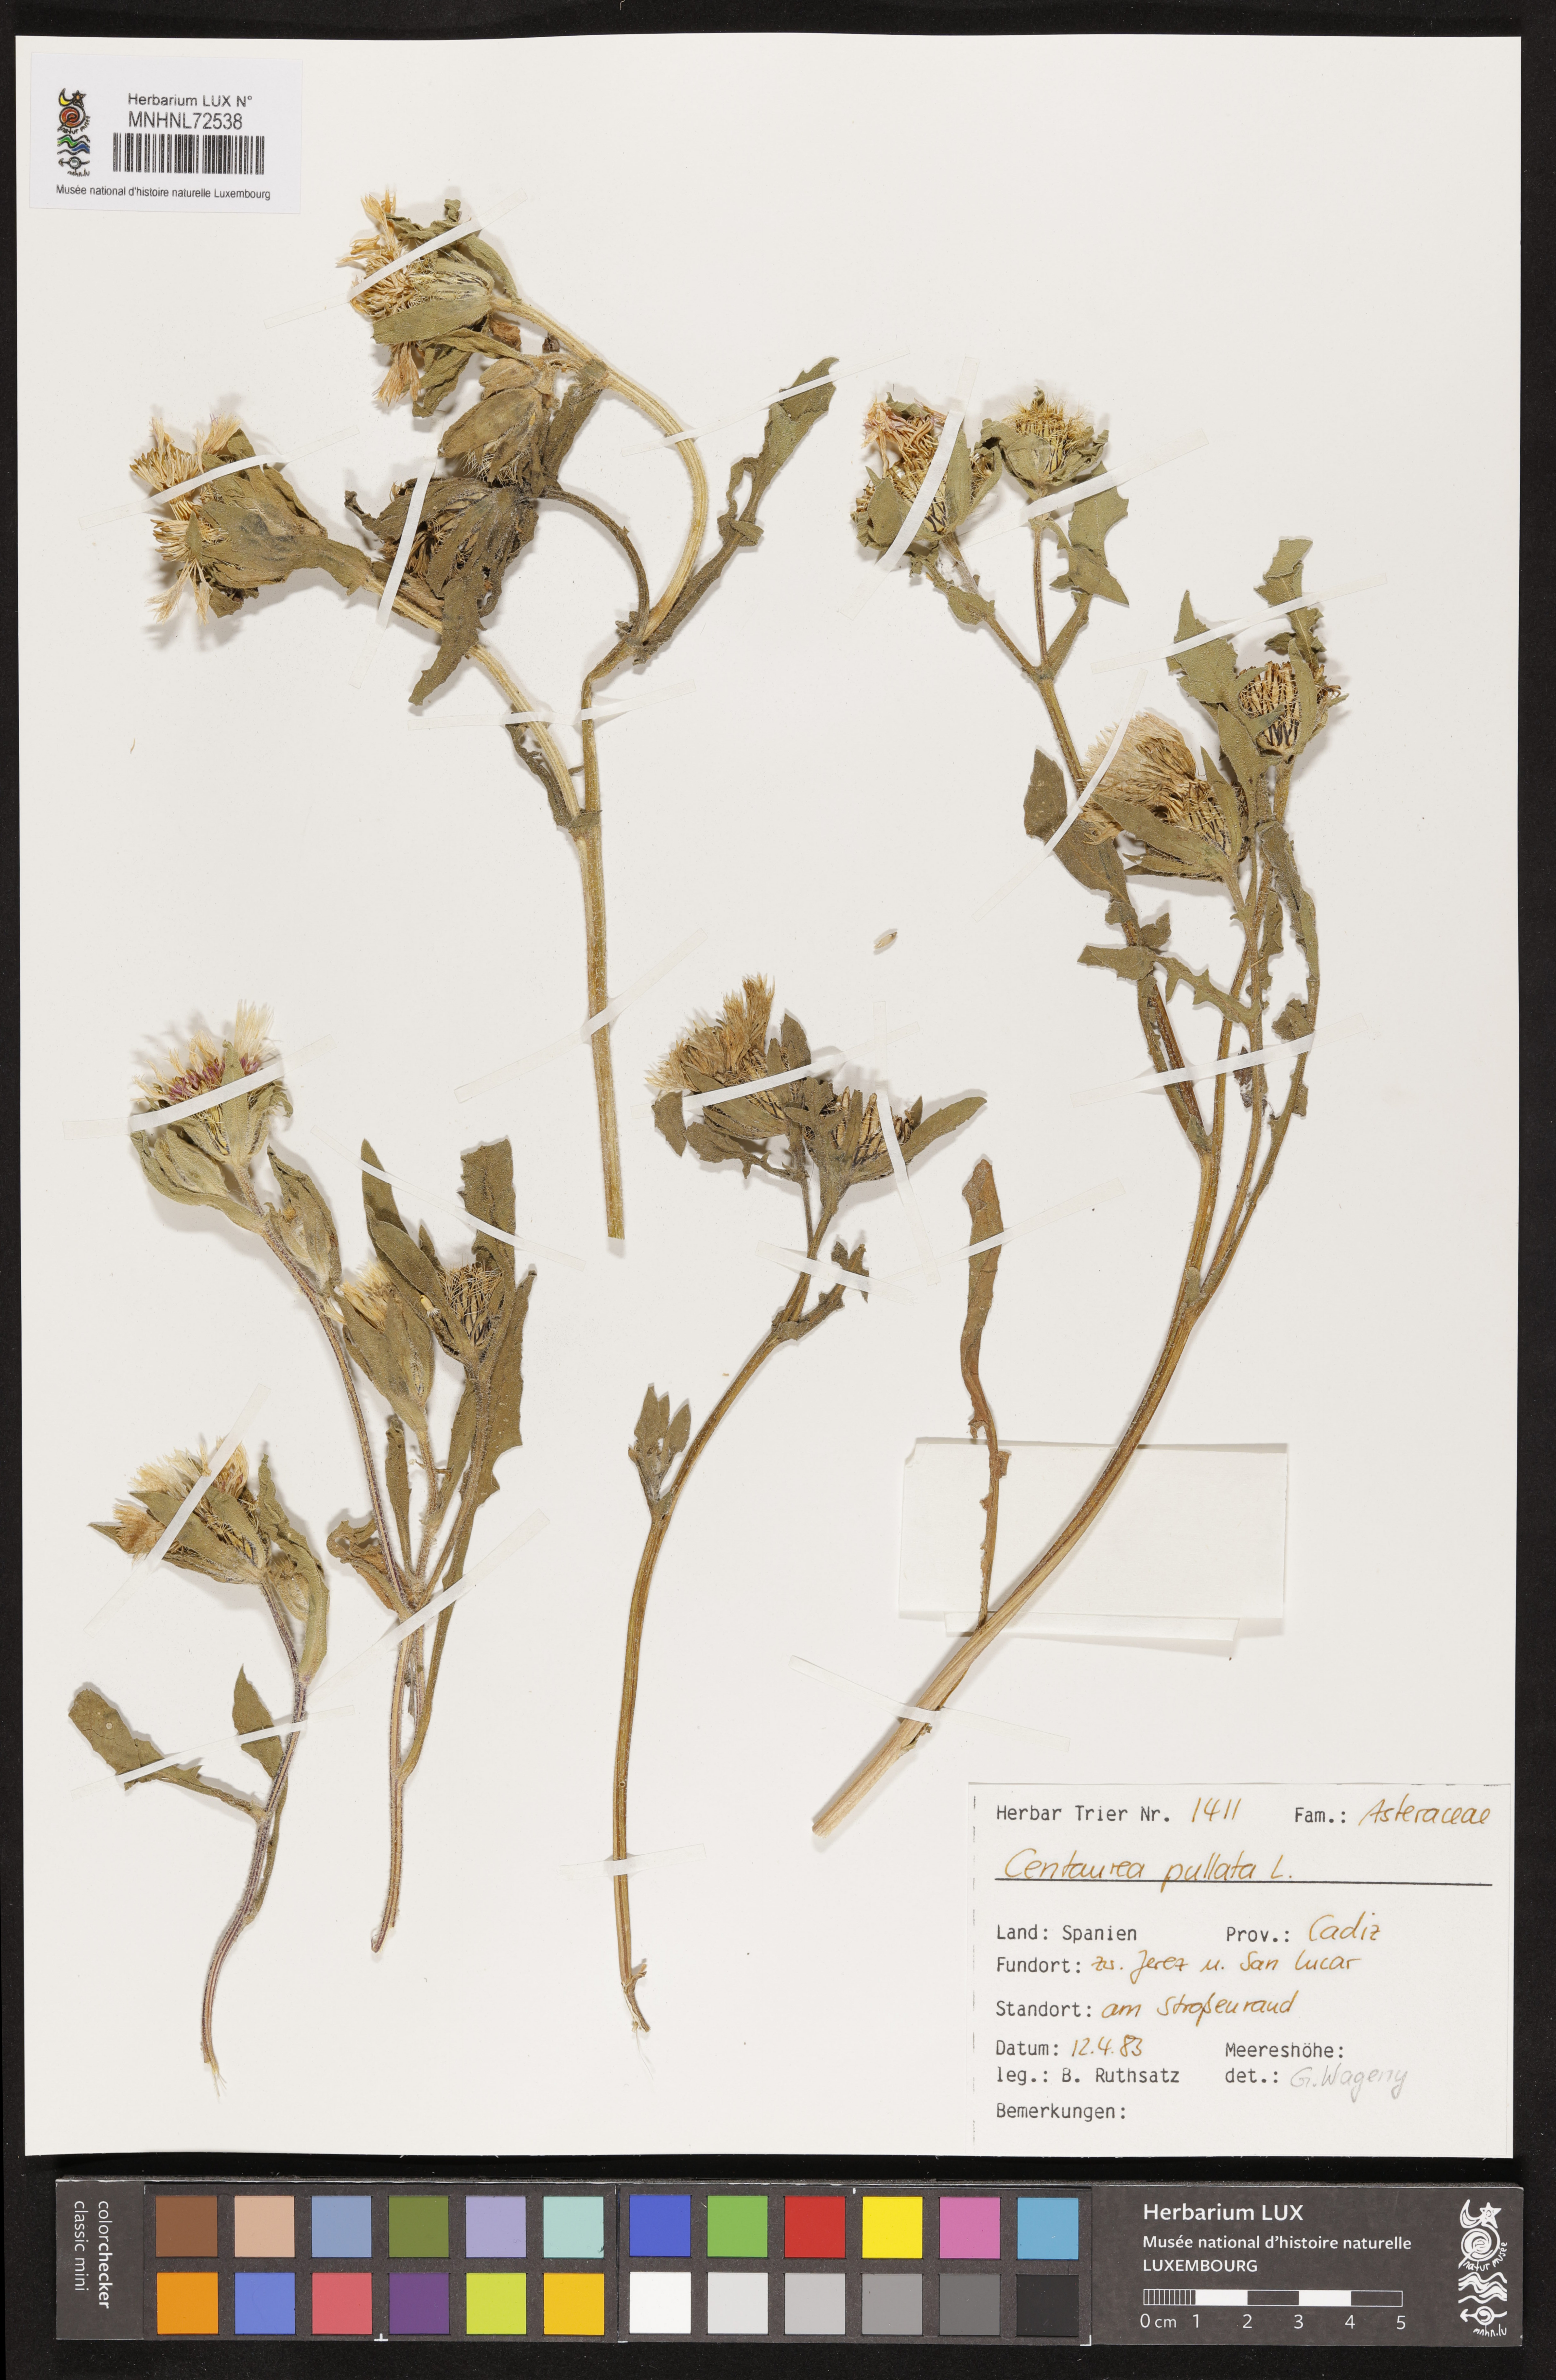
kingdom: Plantae
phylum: Tracheophyta
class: Magnoliopsida
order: Asterales
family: Asteraceae
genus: Centaurea
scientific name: Centaurea pullata
